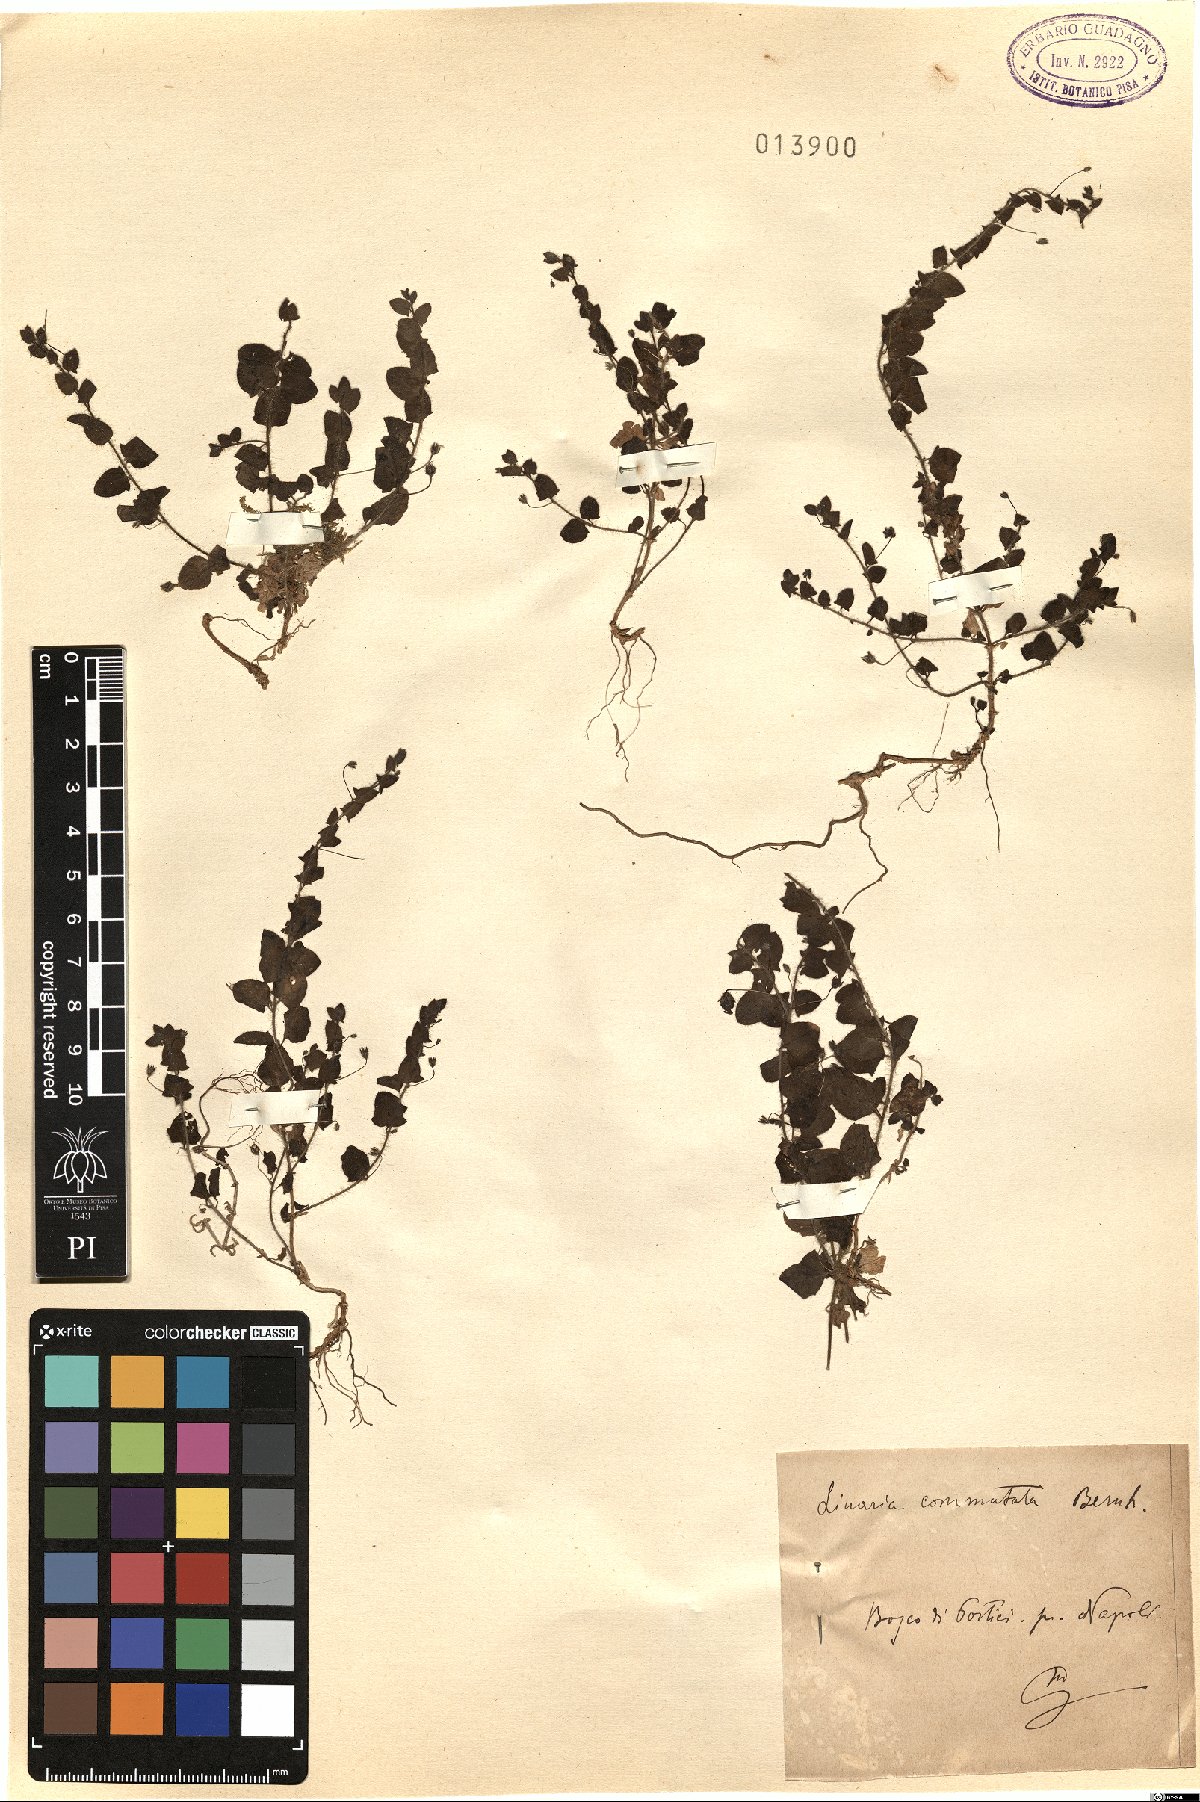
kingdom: Plantae
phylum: Tracheophyta
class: Magnoliopsida
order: Lamiales
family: Plantaginaceae
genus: Kickxia
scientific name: Kickxia elatine
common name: Sharp-leaved fluellen
